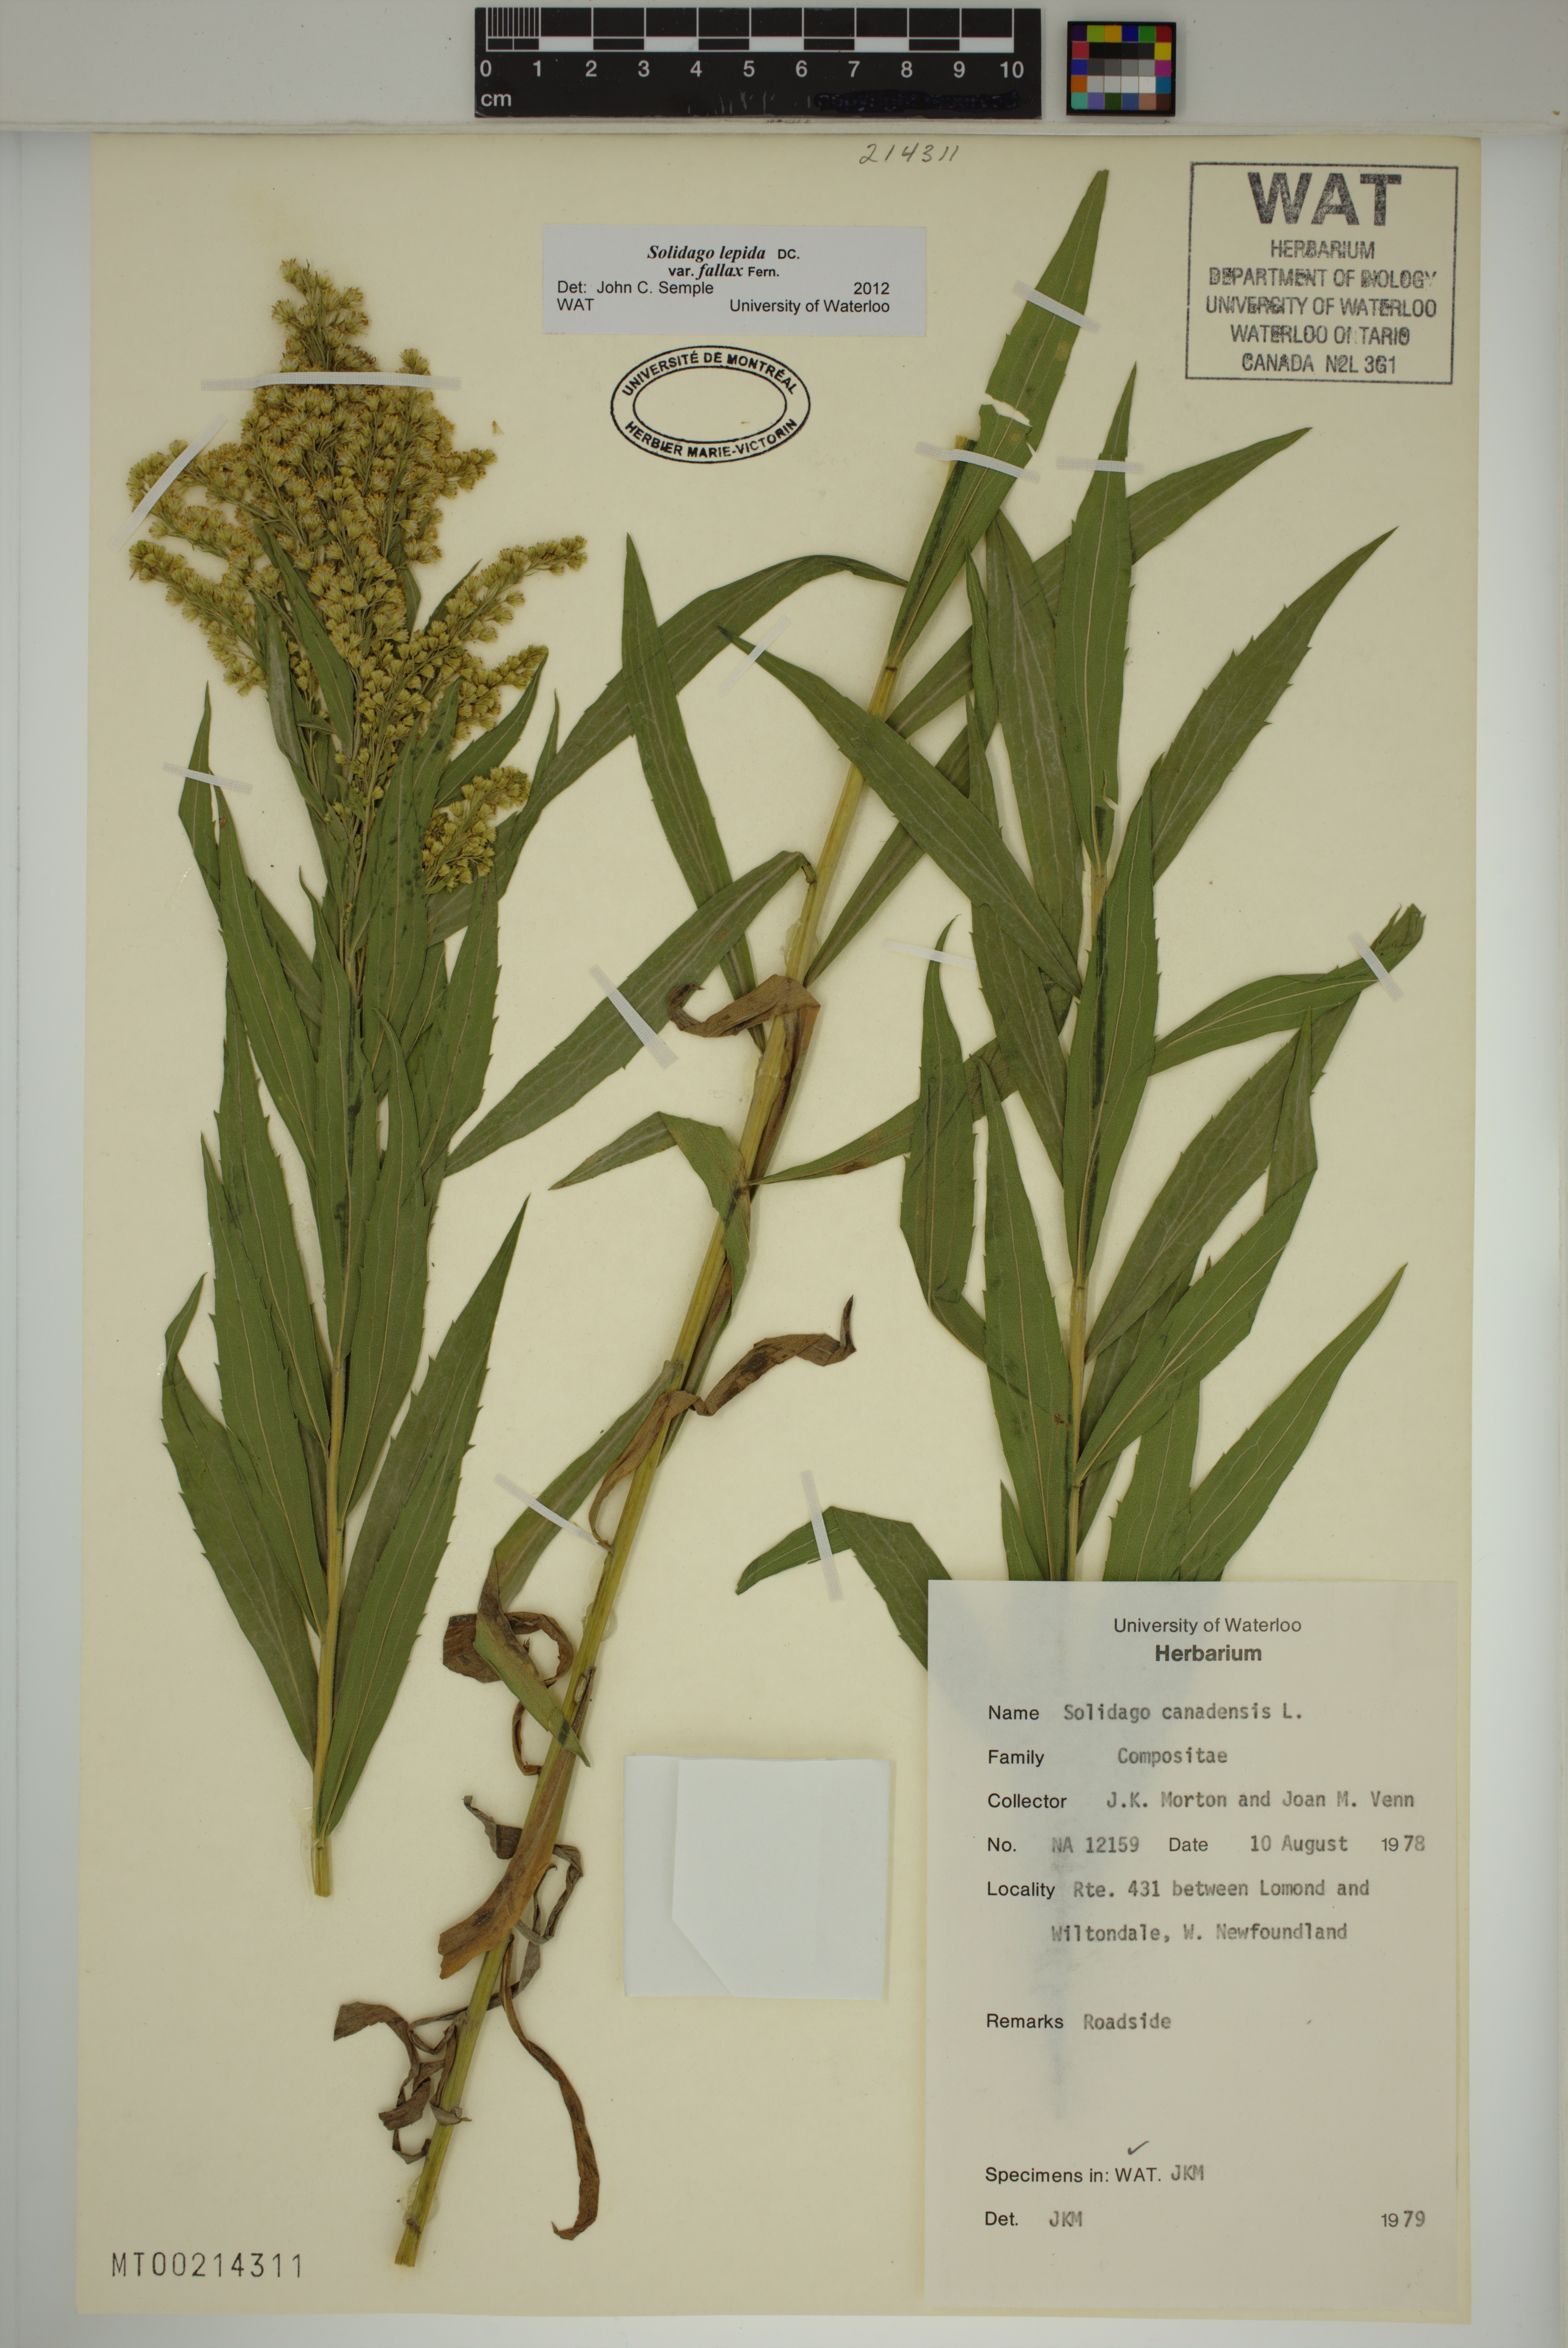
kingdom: Plantae
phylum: Tracheophyta
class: Magnoliopsida
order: Asterales
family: Asteraceae
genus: Solidago
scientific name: Solidago fallax
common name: Big-toothed canada goldenrod
